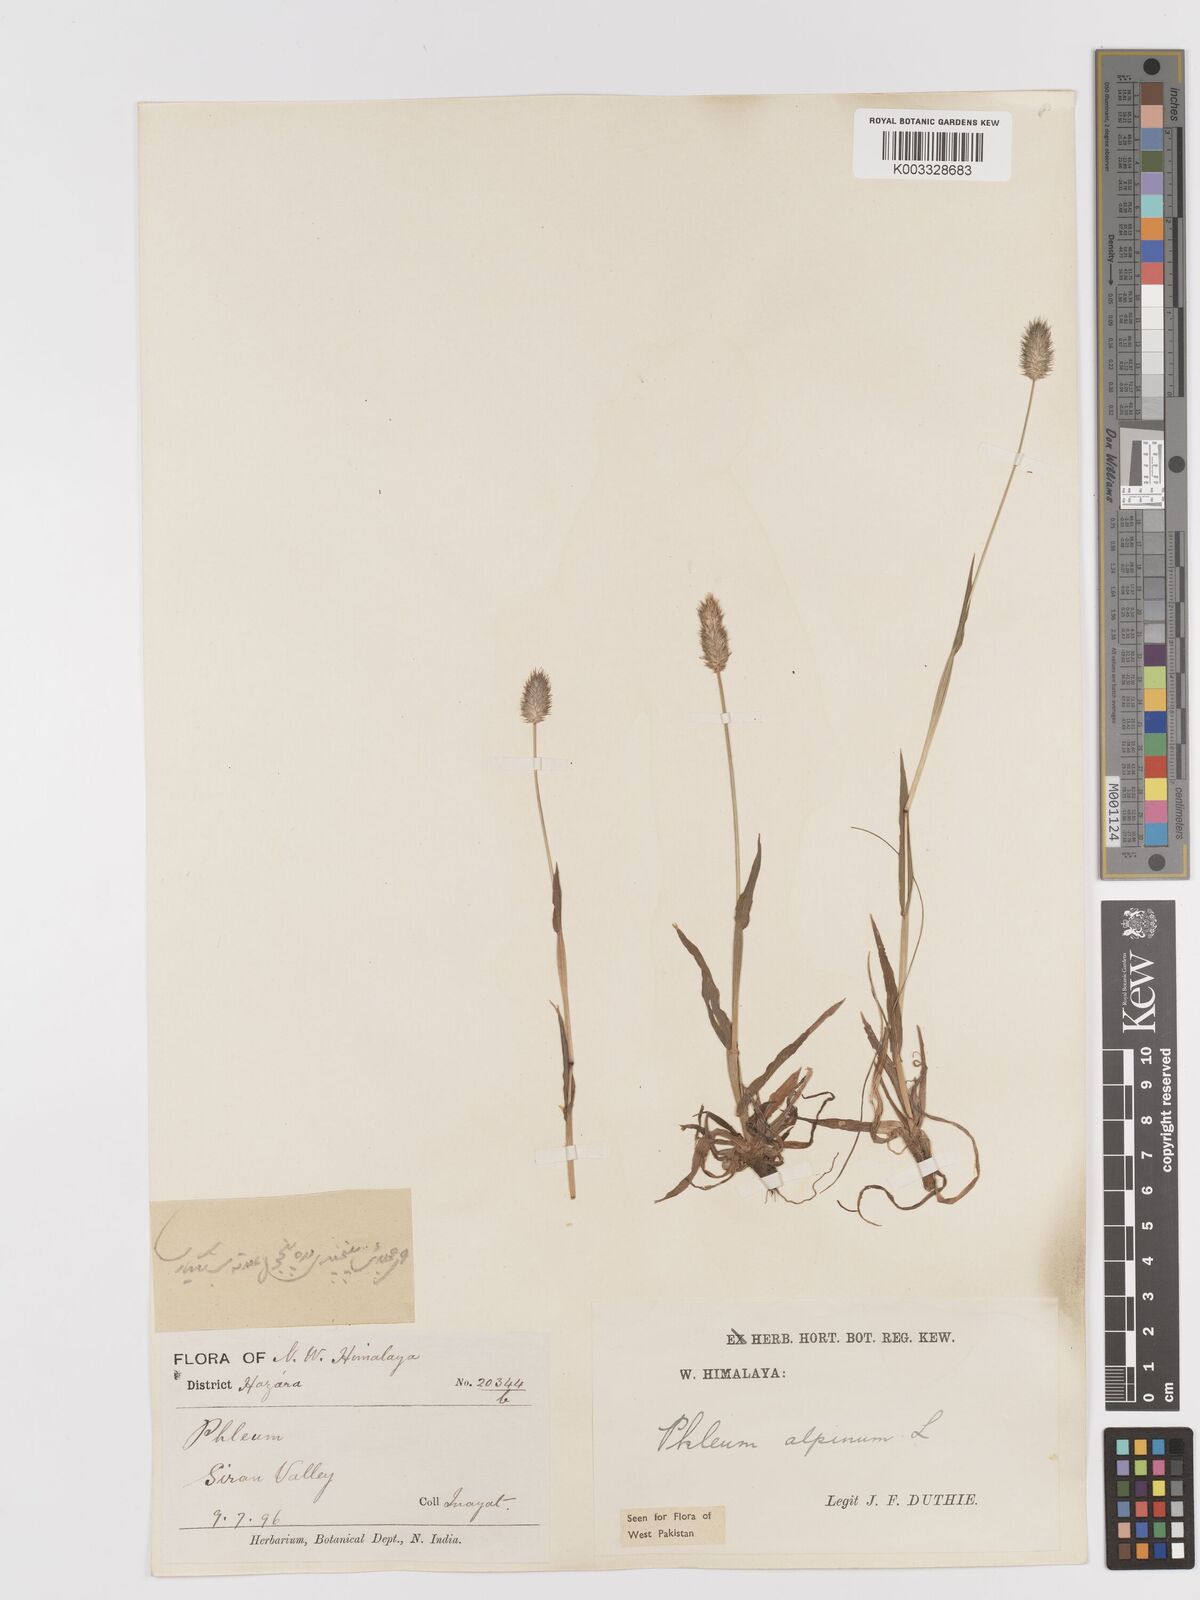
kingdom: Plantae
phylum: Tracheophyta
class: Liliopsida
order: Poales
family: Poaceae
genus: Phleum
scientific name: Phleum alpinum
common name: Alpine cat's-tail
